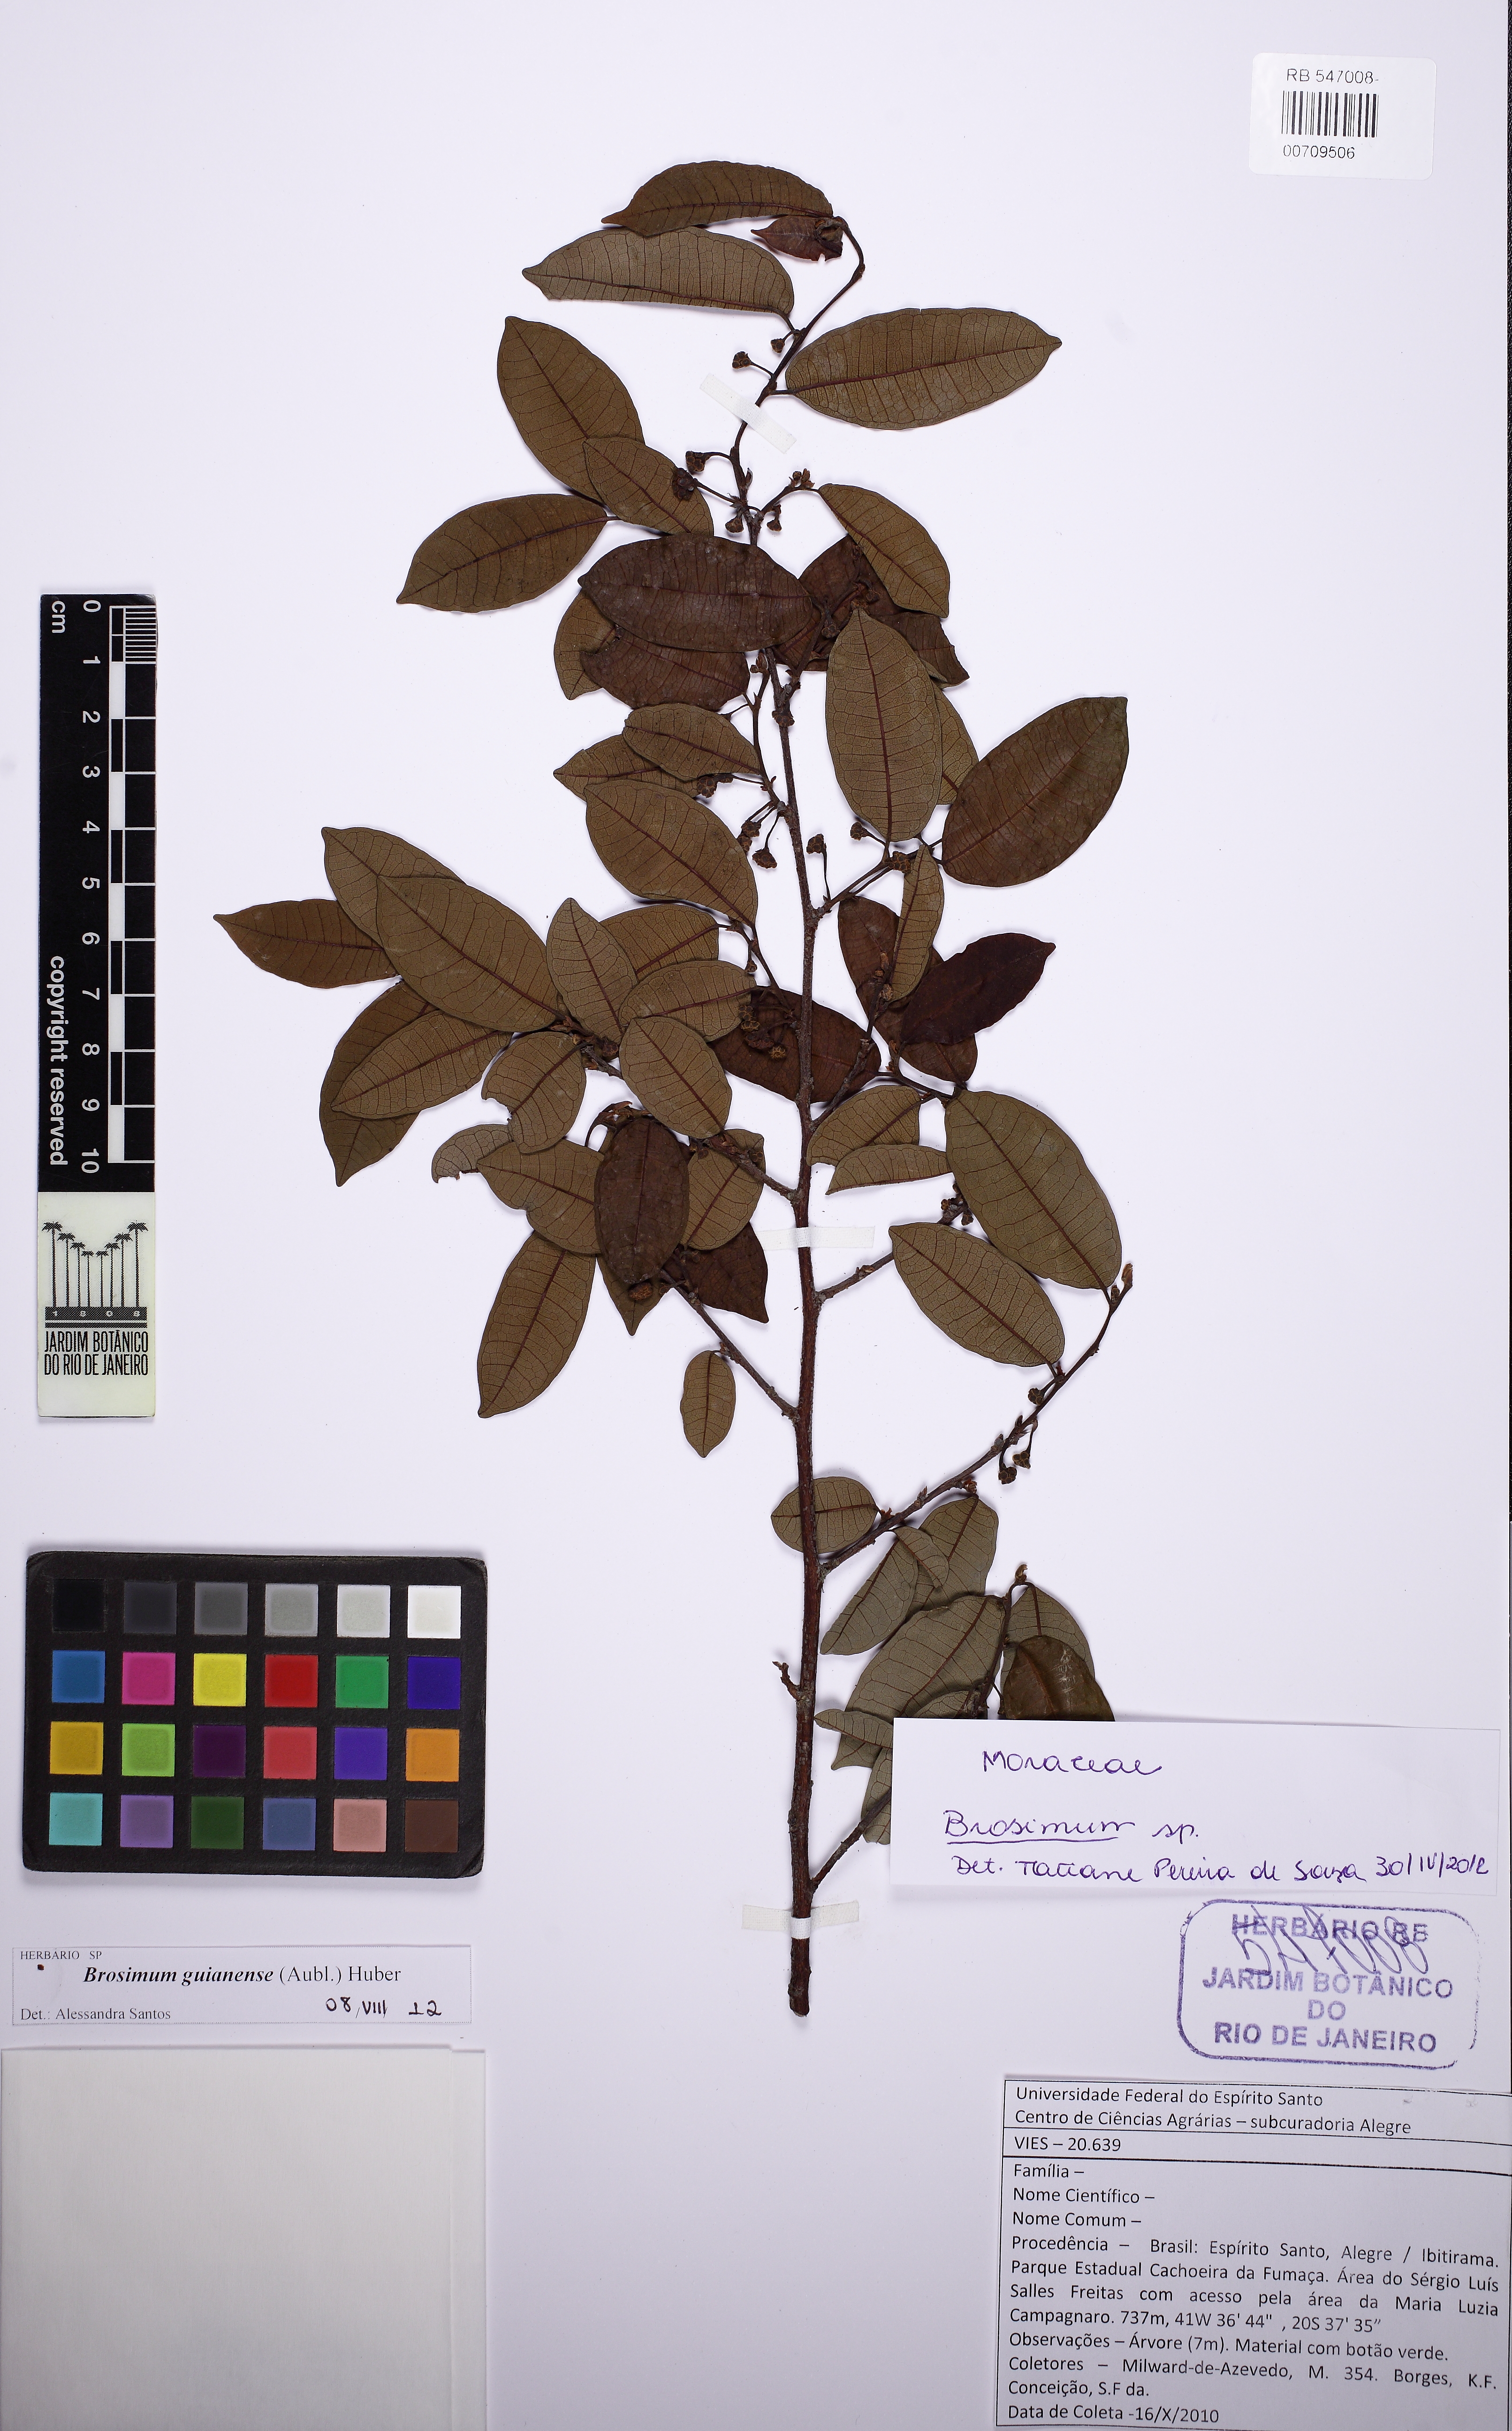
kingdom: Plantae
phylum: Tracheophyta
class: Magnoliopsida
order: Rosales
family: Moraceae
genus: Brosimum
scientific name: Brosimum guianense
